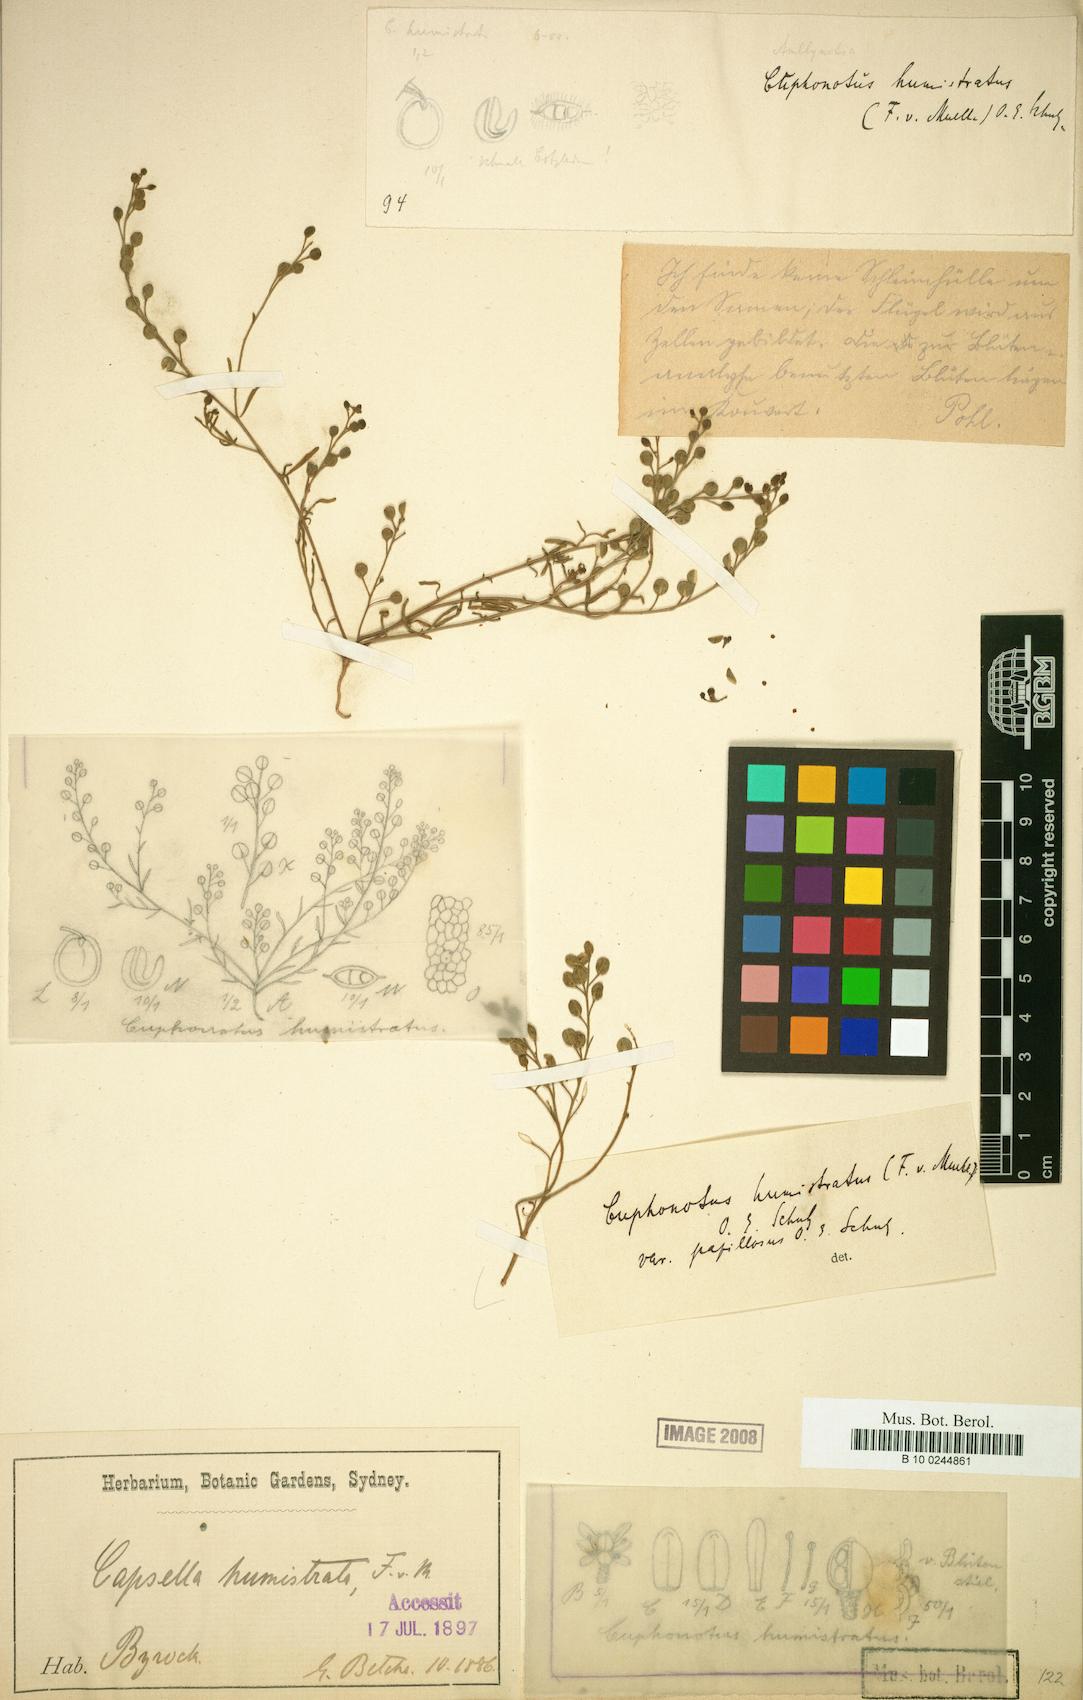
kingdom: Plantae
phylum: Tracheophyta
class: Magnoliopsida
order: Brassicales
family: Brassicaceae
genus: Cuphonotus
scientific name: Cuphonotus humistratus
